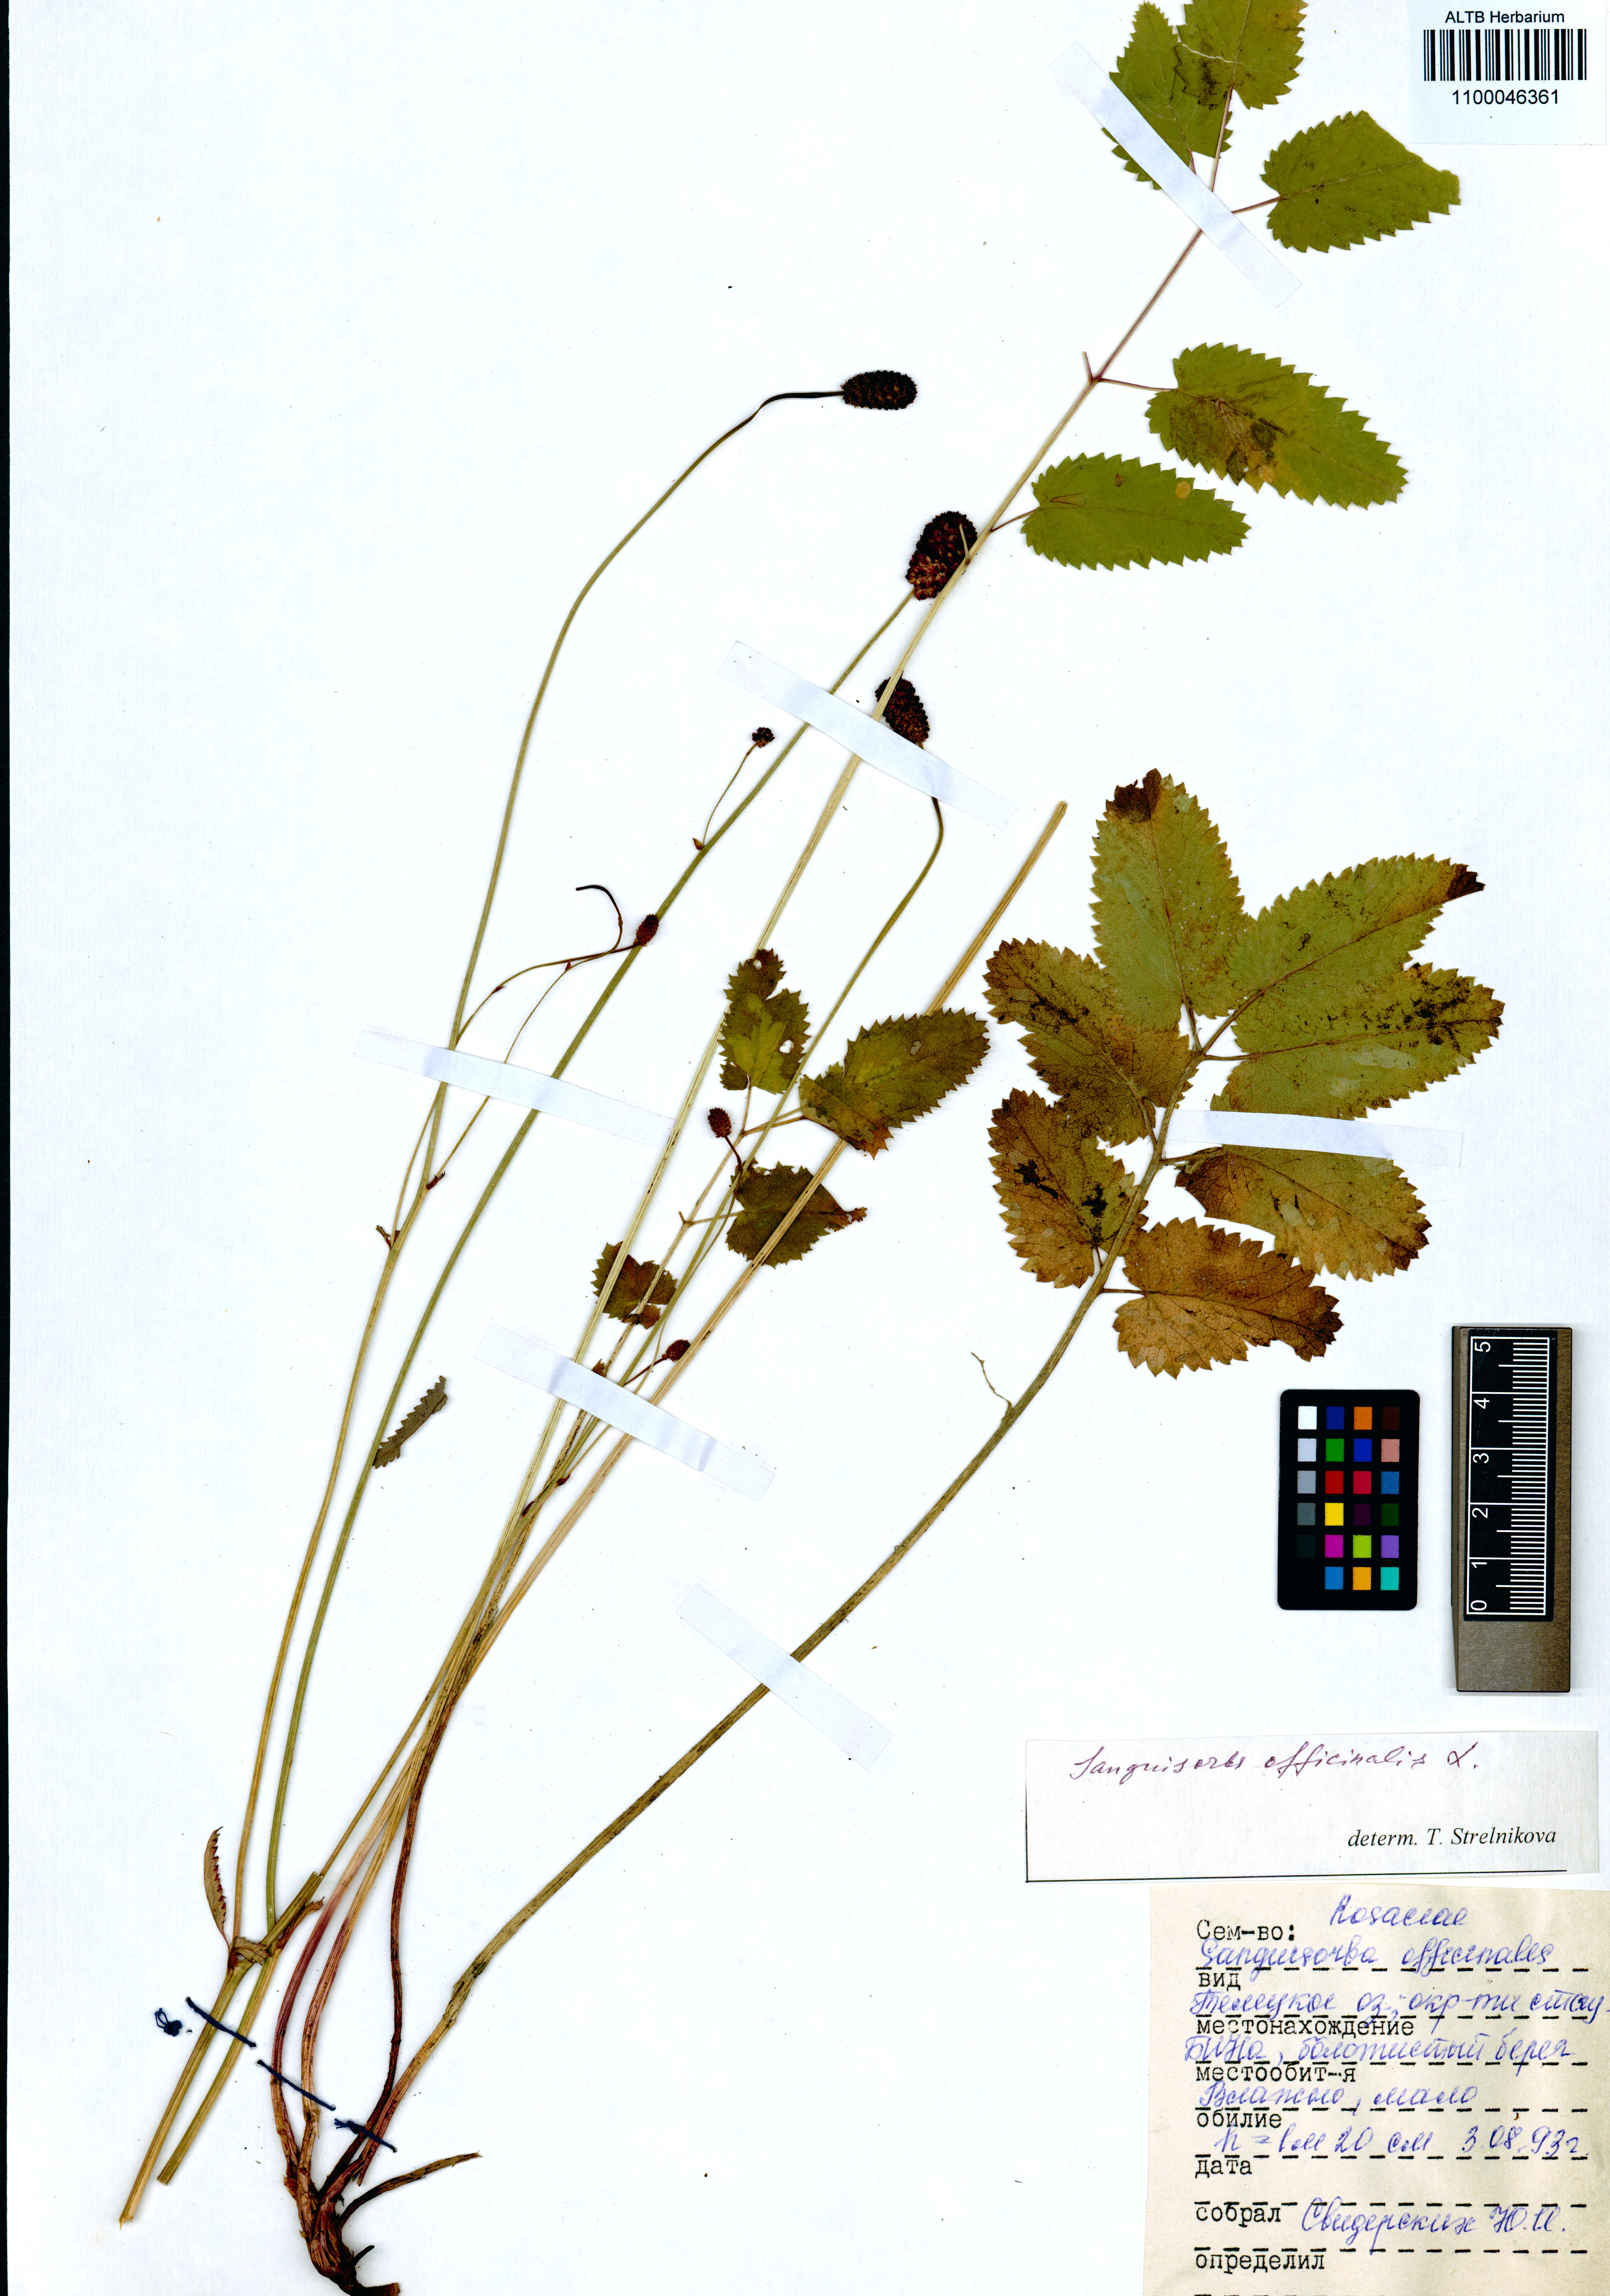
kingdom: Plantae
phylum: Tracheophyta
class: Magnoliopsida
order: Rosales
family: Rosaceae
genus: Sanguisorba
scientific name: Sanguisorba officinalis
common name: Great burnet
